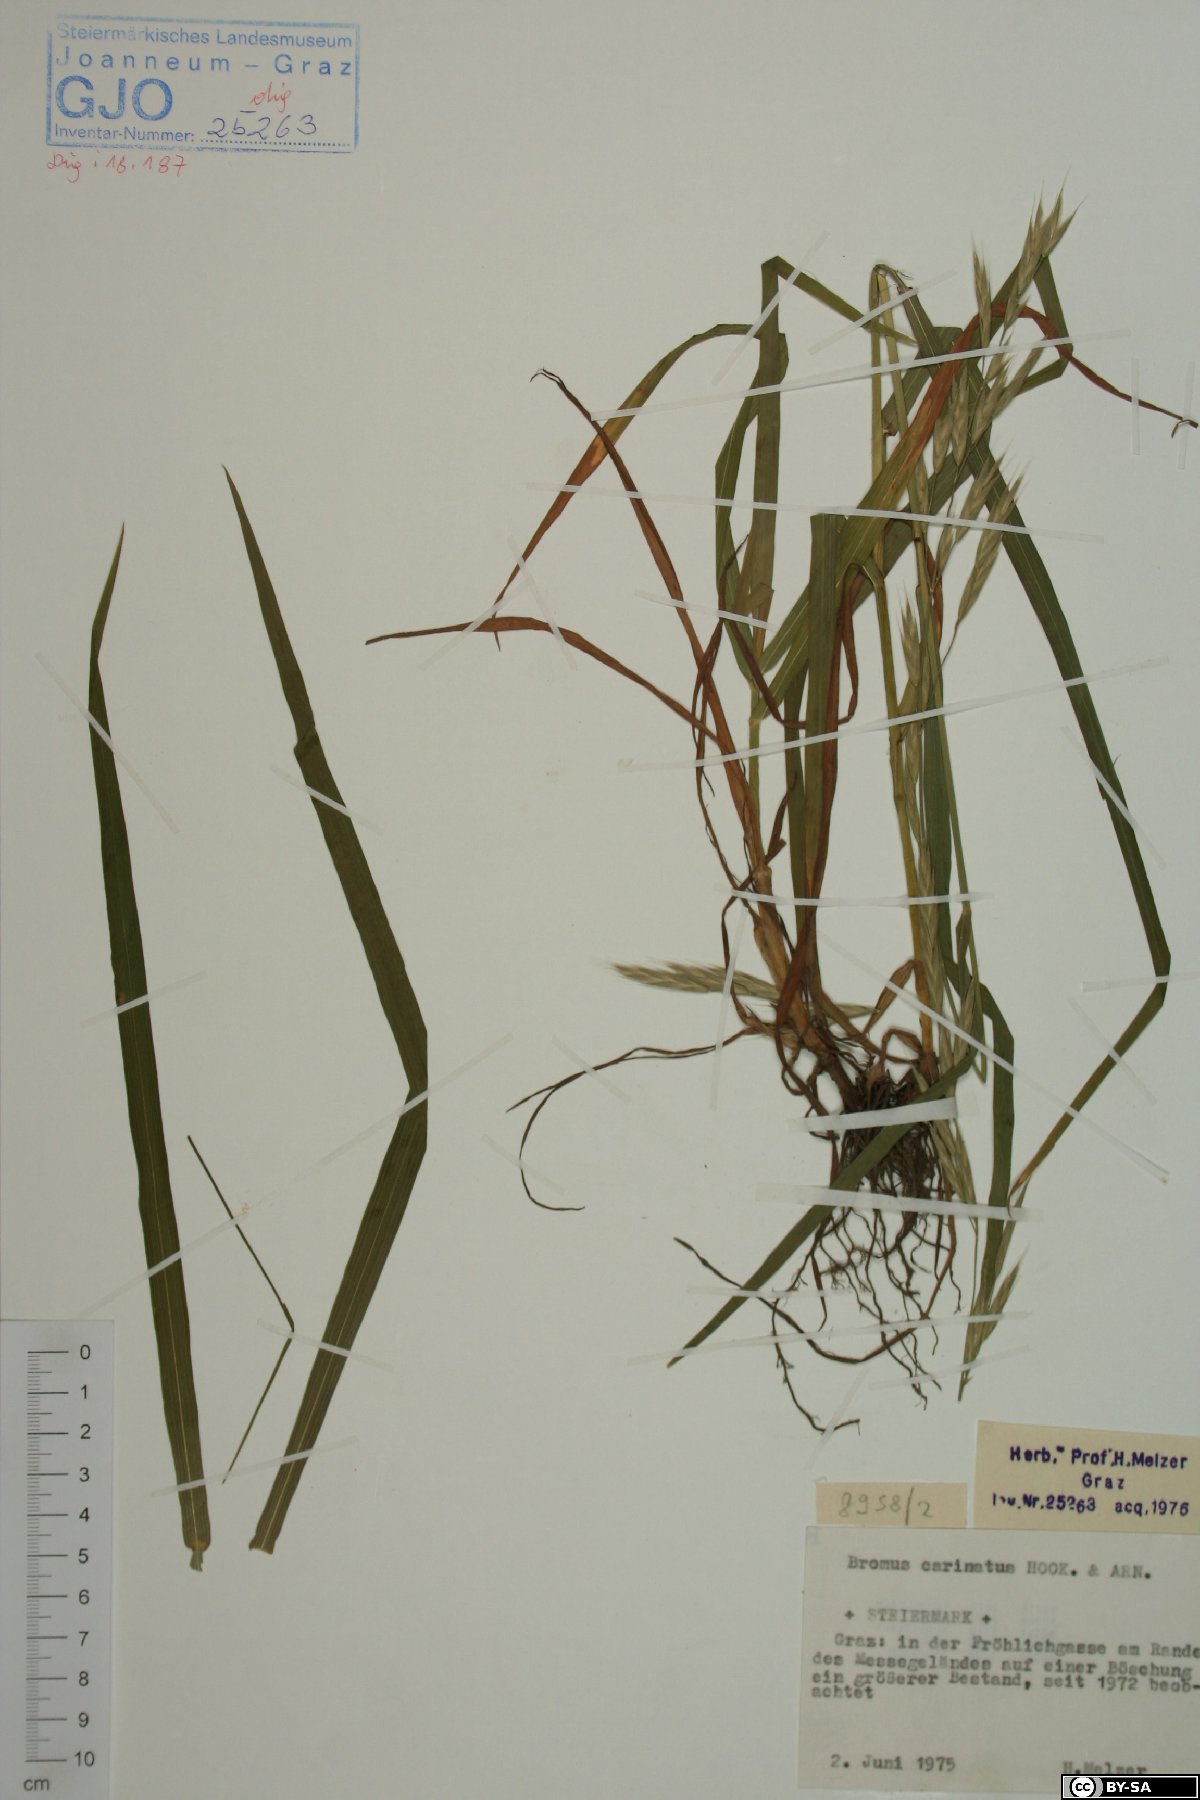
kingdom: Plantae
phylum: Tracheophyta
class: Liliopsida
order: Poales
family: Poaceae
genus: Bromus
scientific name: Bromus carinatus
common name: Mountain brome
